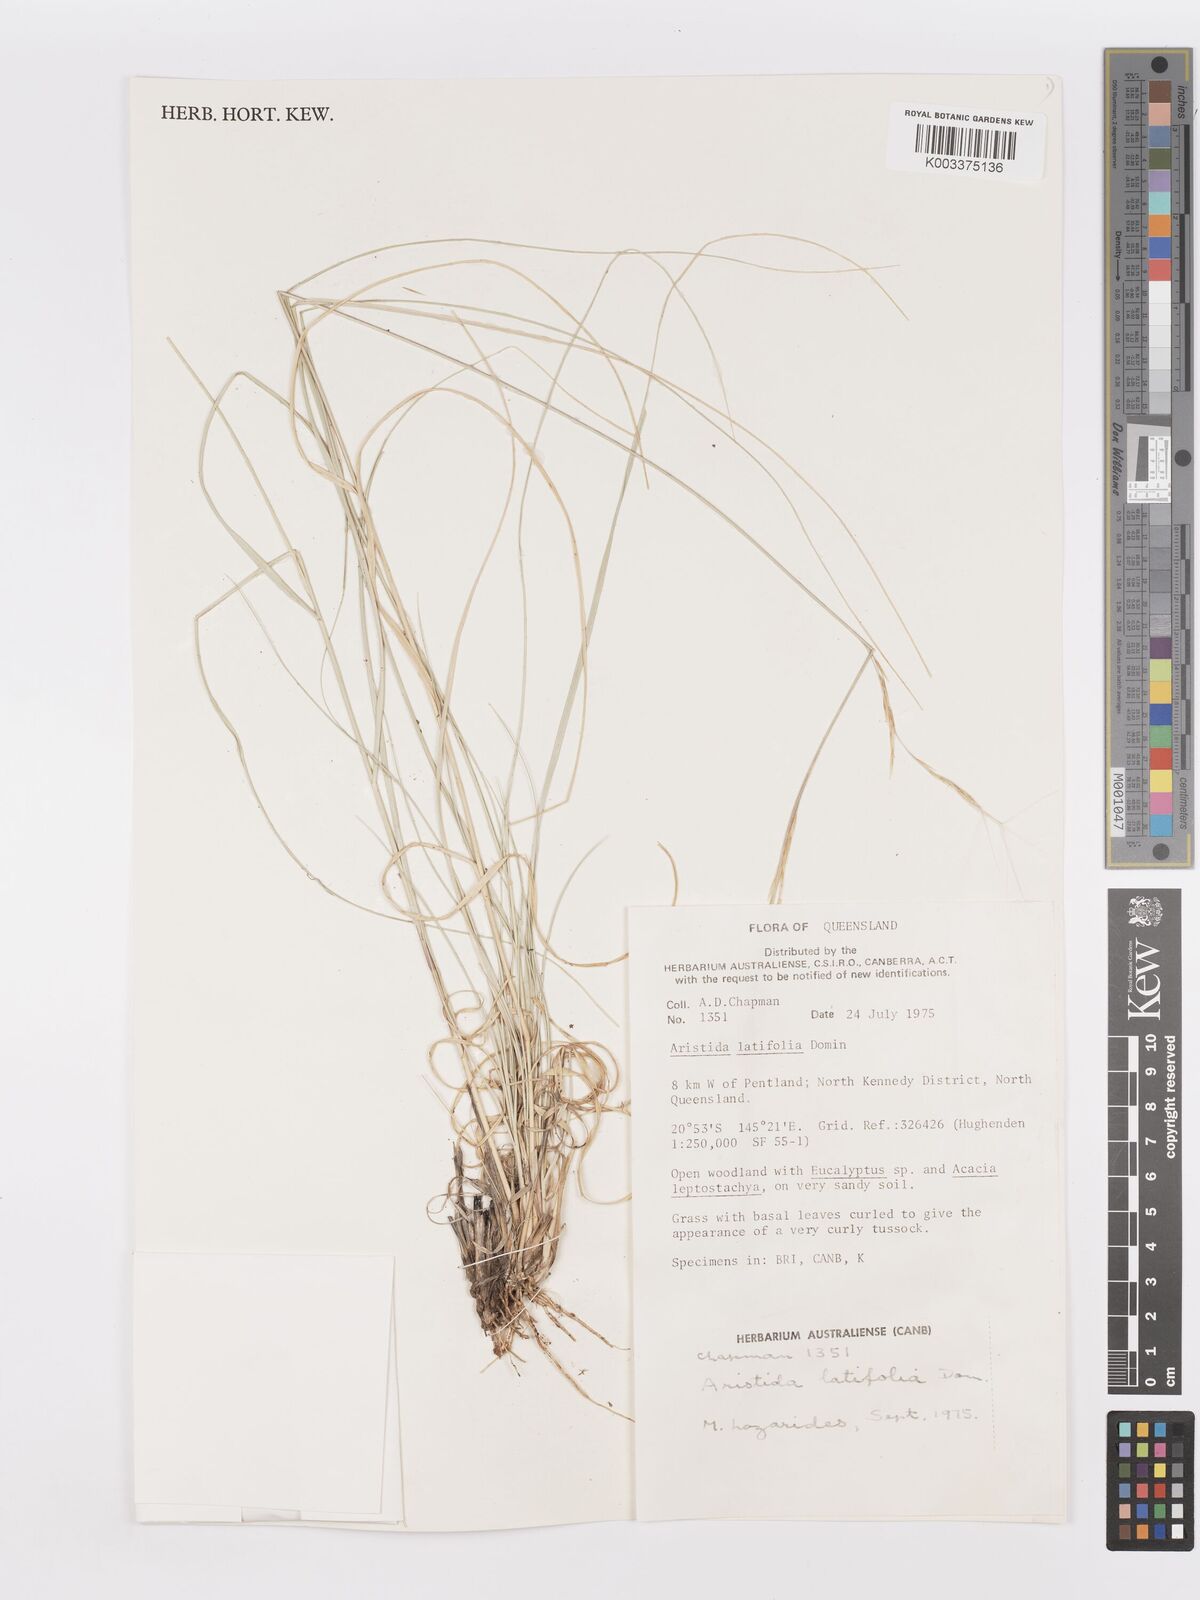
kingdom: Plantae
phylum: Tracheophyta
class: Liliopsida
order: Poales
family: Poaceae
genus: Aristida
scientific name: Aristida latifolia
